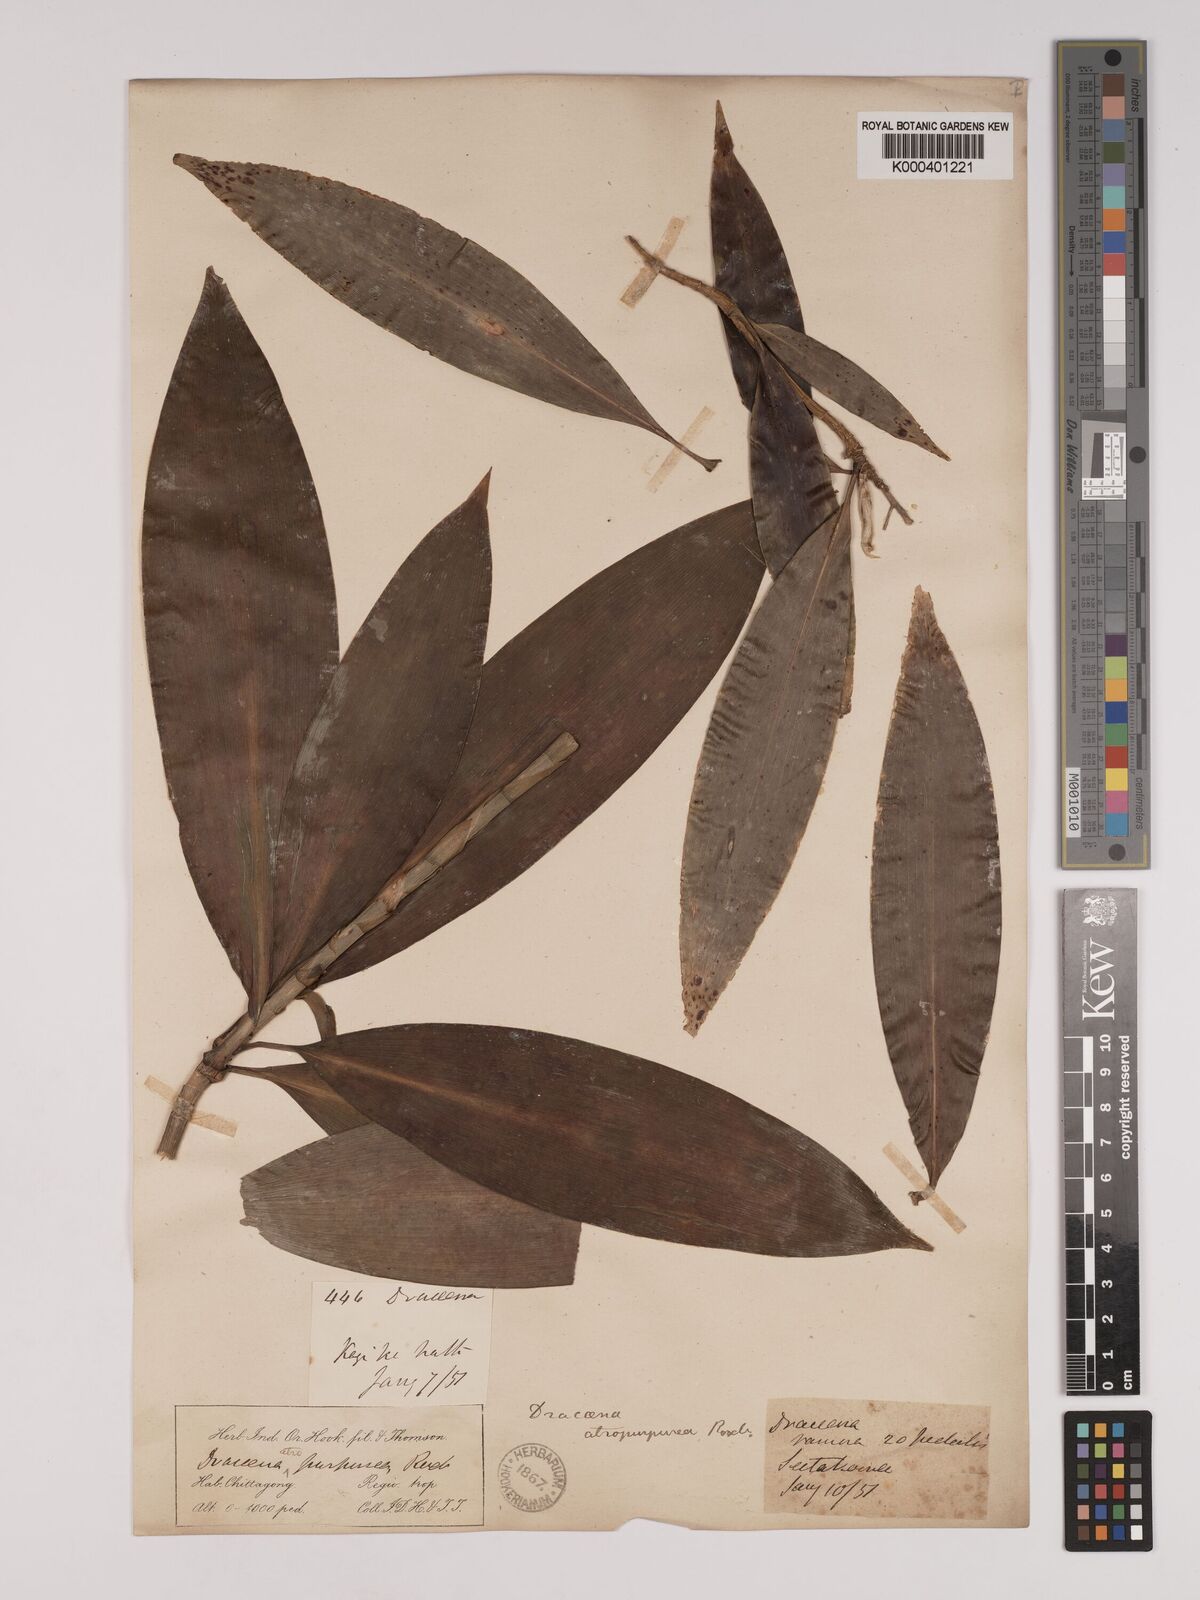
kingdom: Plantae
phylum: Tracheophyta
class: Liliopsida
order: Asparagales
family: Asparagaceae
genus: Dracaena
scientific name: Dracaena elliptica
